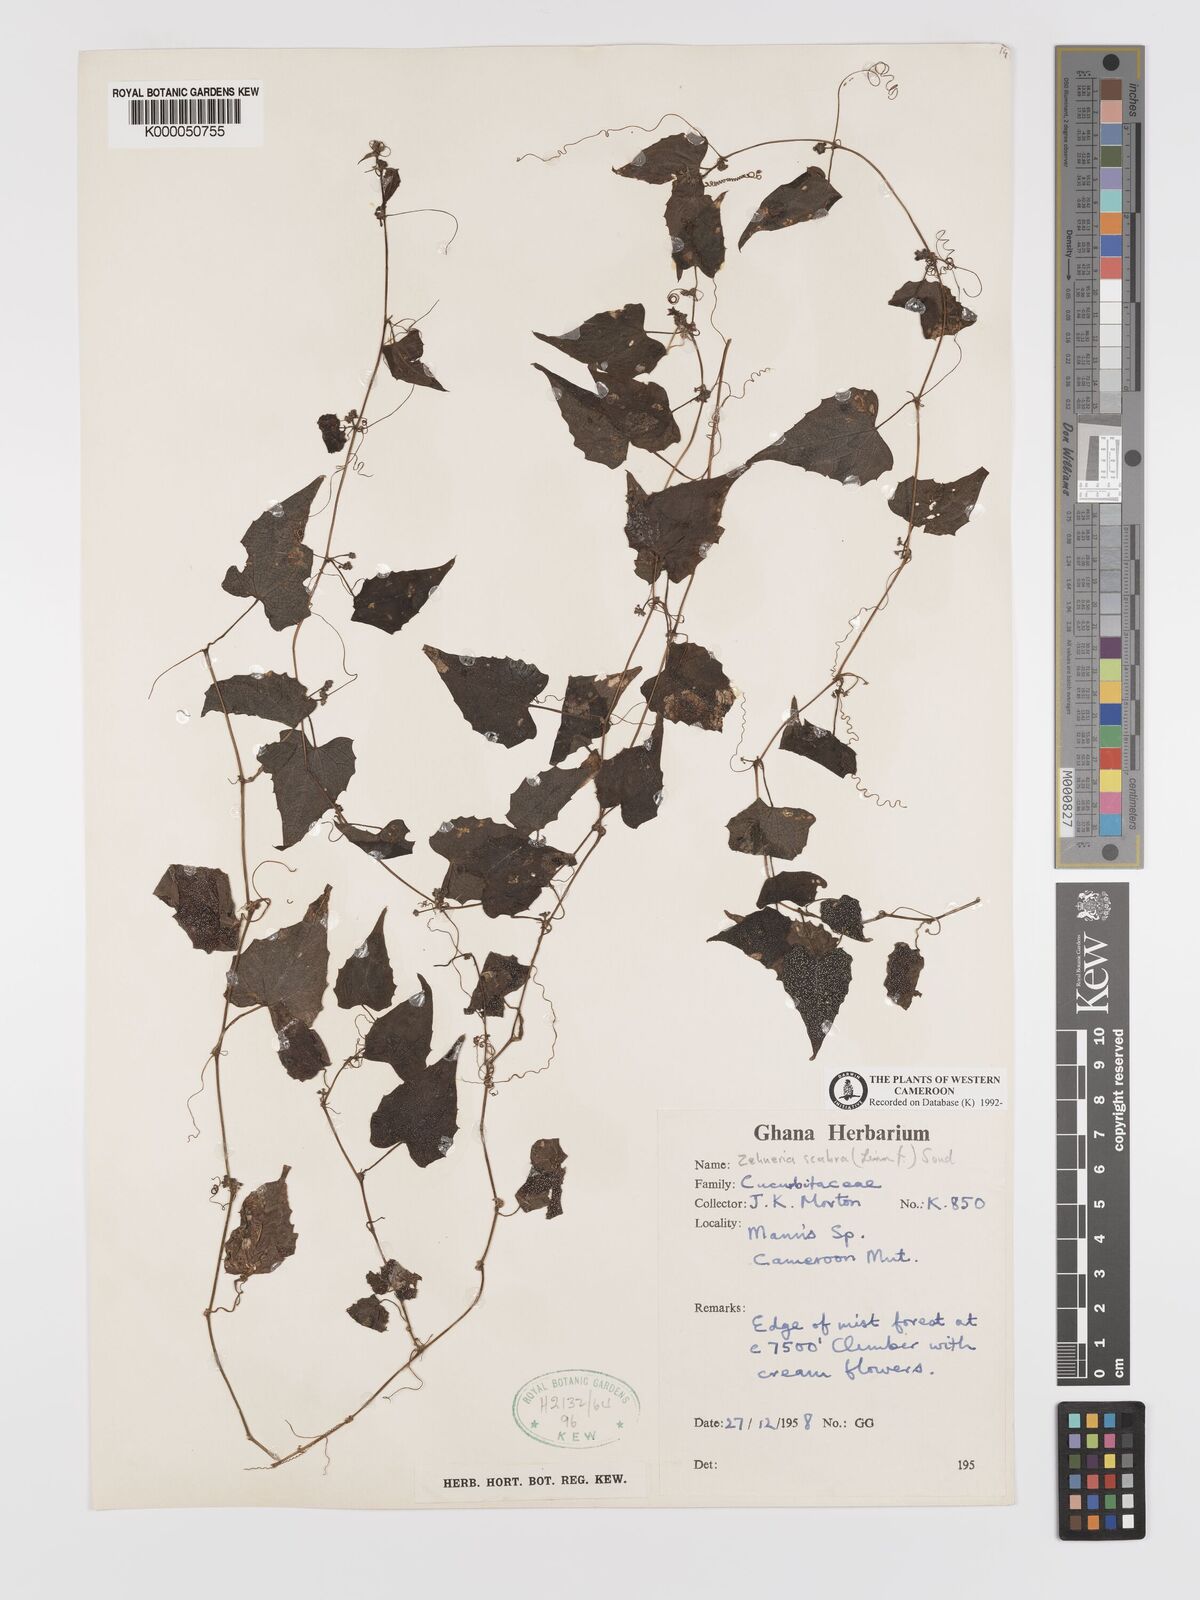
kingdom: Plantae
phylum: Tracheophyta
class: Magnoliopsida
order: Cucurbitales
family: Cucurbitaceae
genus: Zehneria
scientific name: Zehneria scabra
